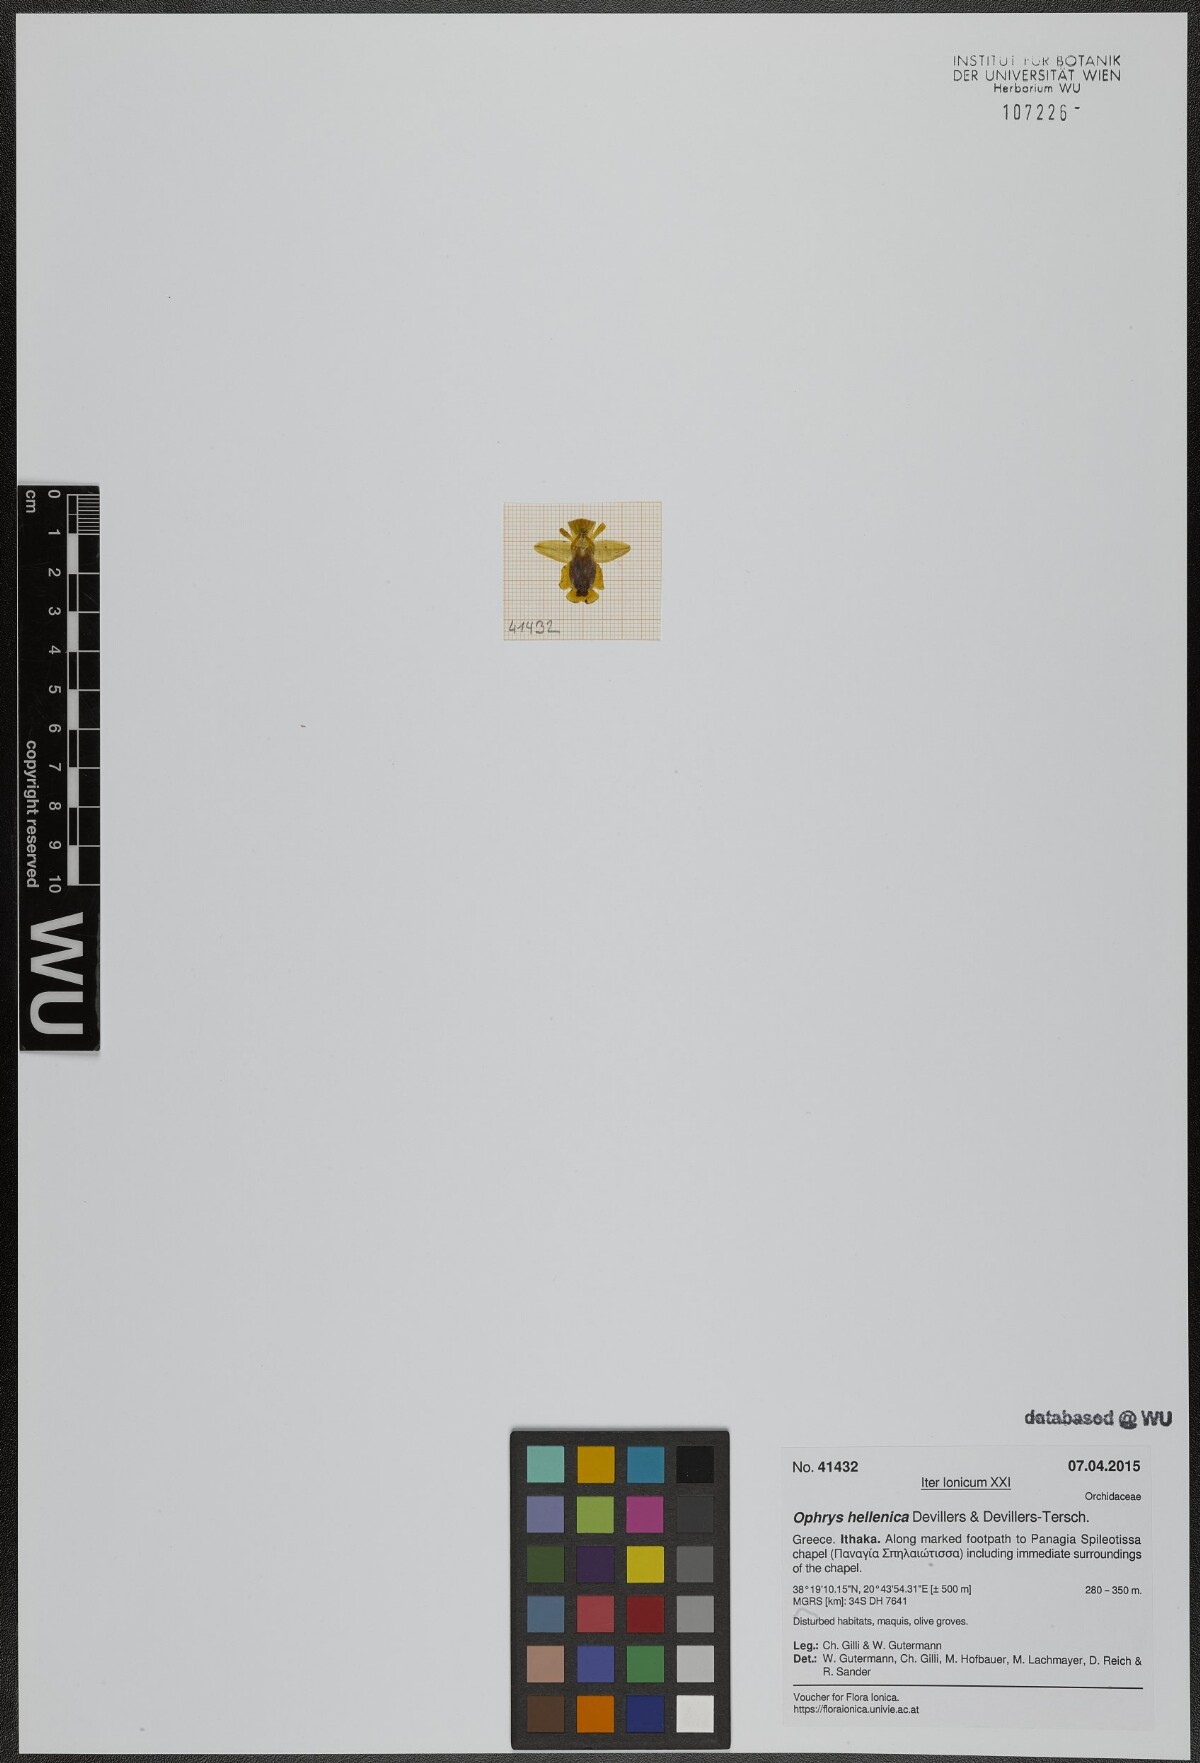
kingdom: Plantae
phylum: Tracheophyta
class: Liliopsida
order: Asparagales
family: Orchidaceae
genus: Ophrys
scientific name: Ophrys lutea
